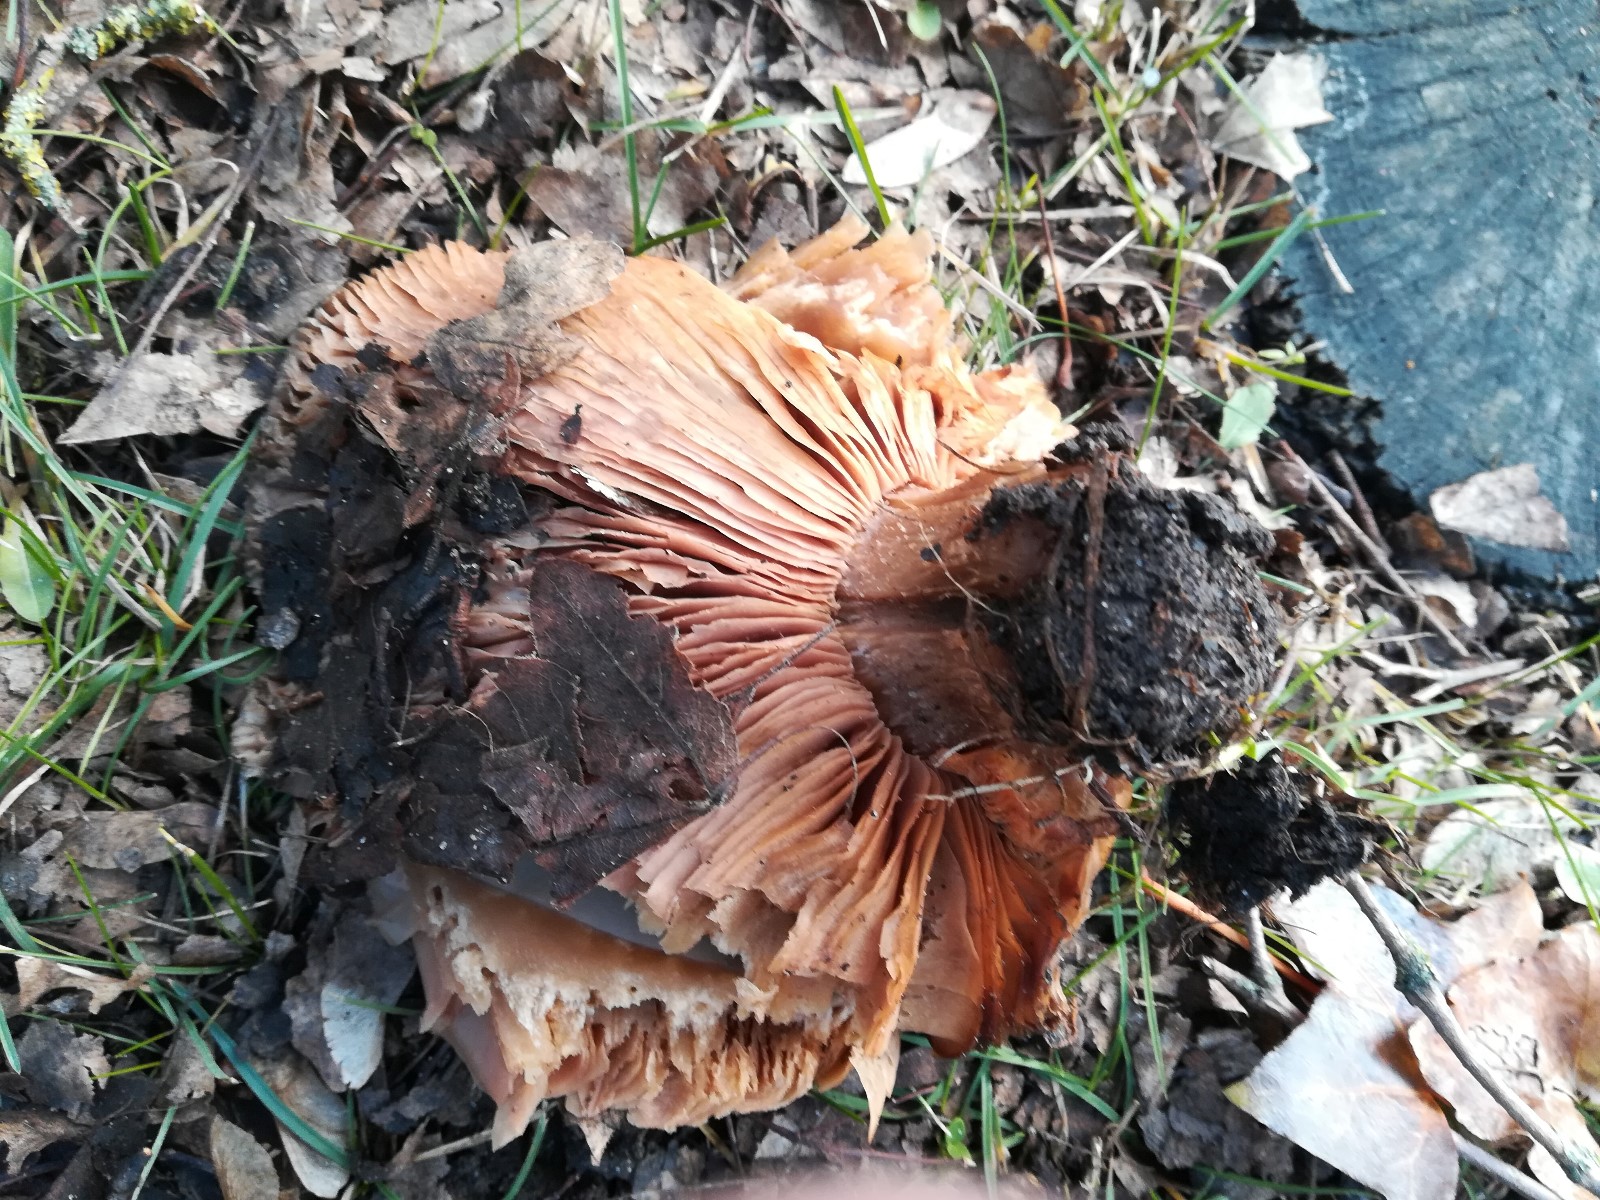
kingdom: Fungi
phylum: Basidiomycota
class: Agaricomycetes
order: Agaricales
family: Tricholomataceae
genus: Lepista
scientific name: Lepista personata
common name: bleg hekseringshat
